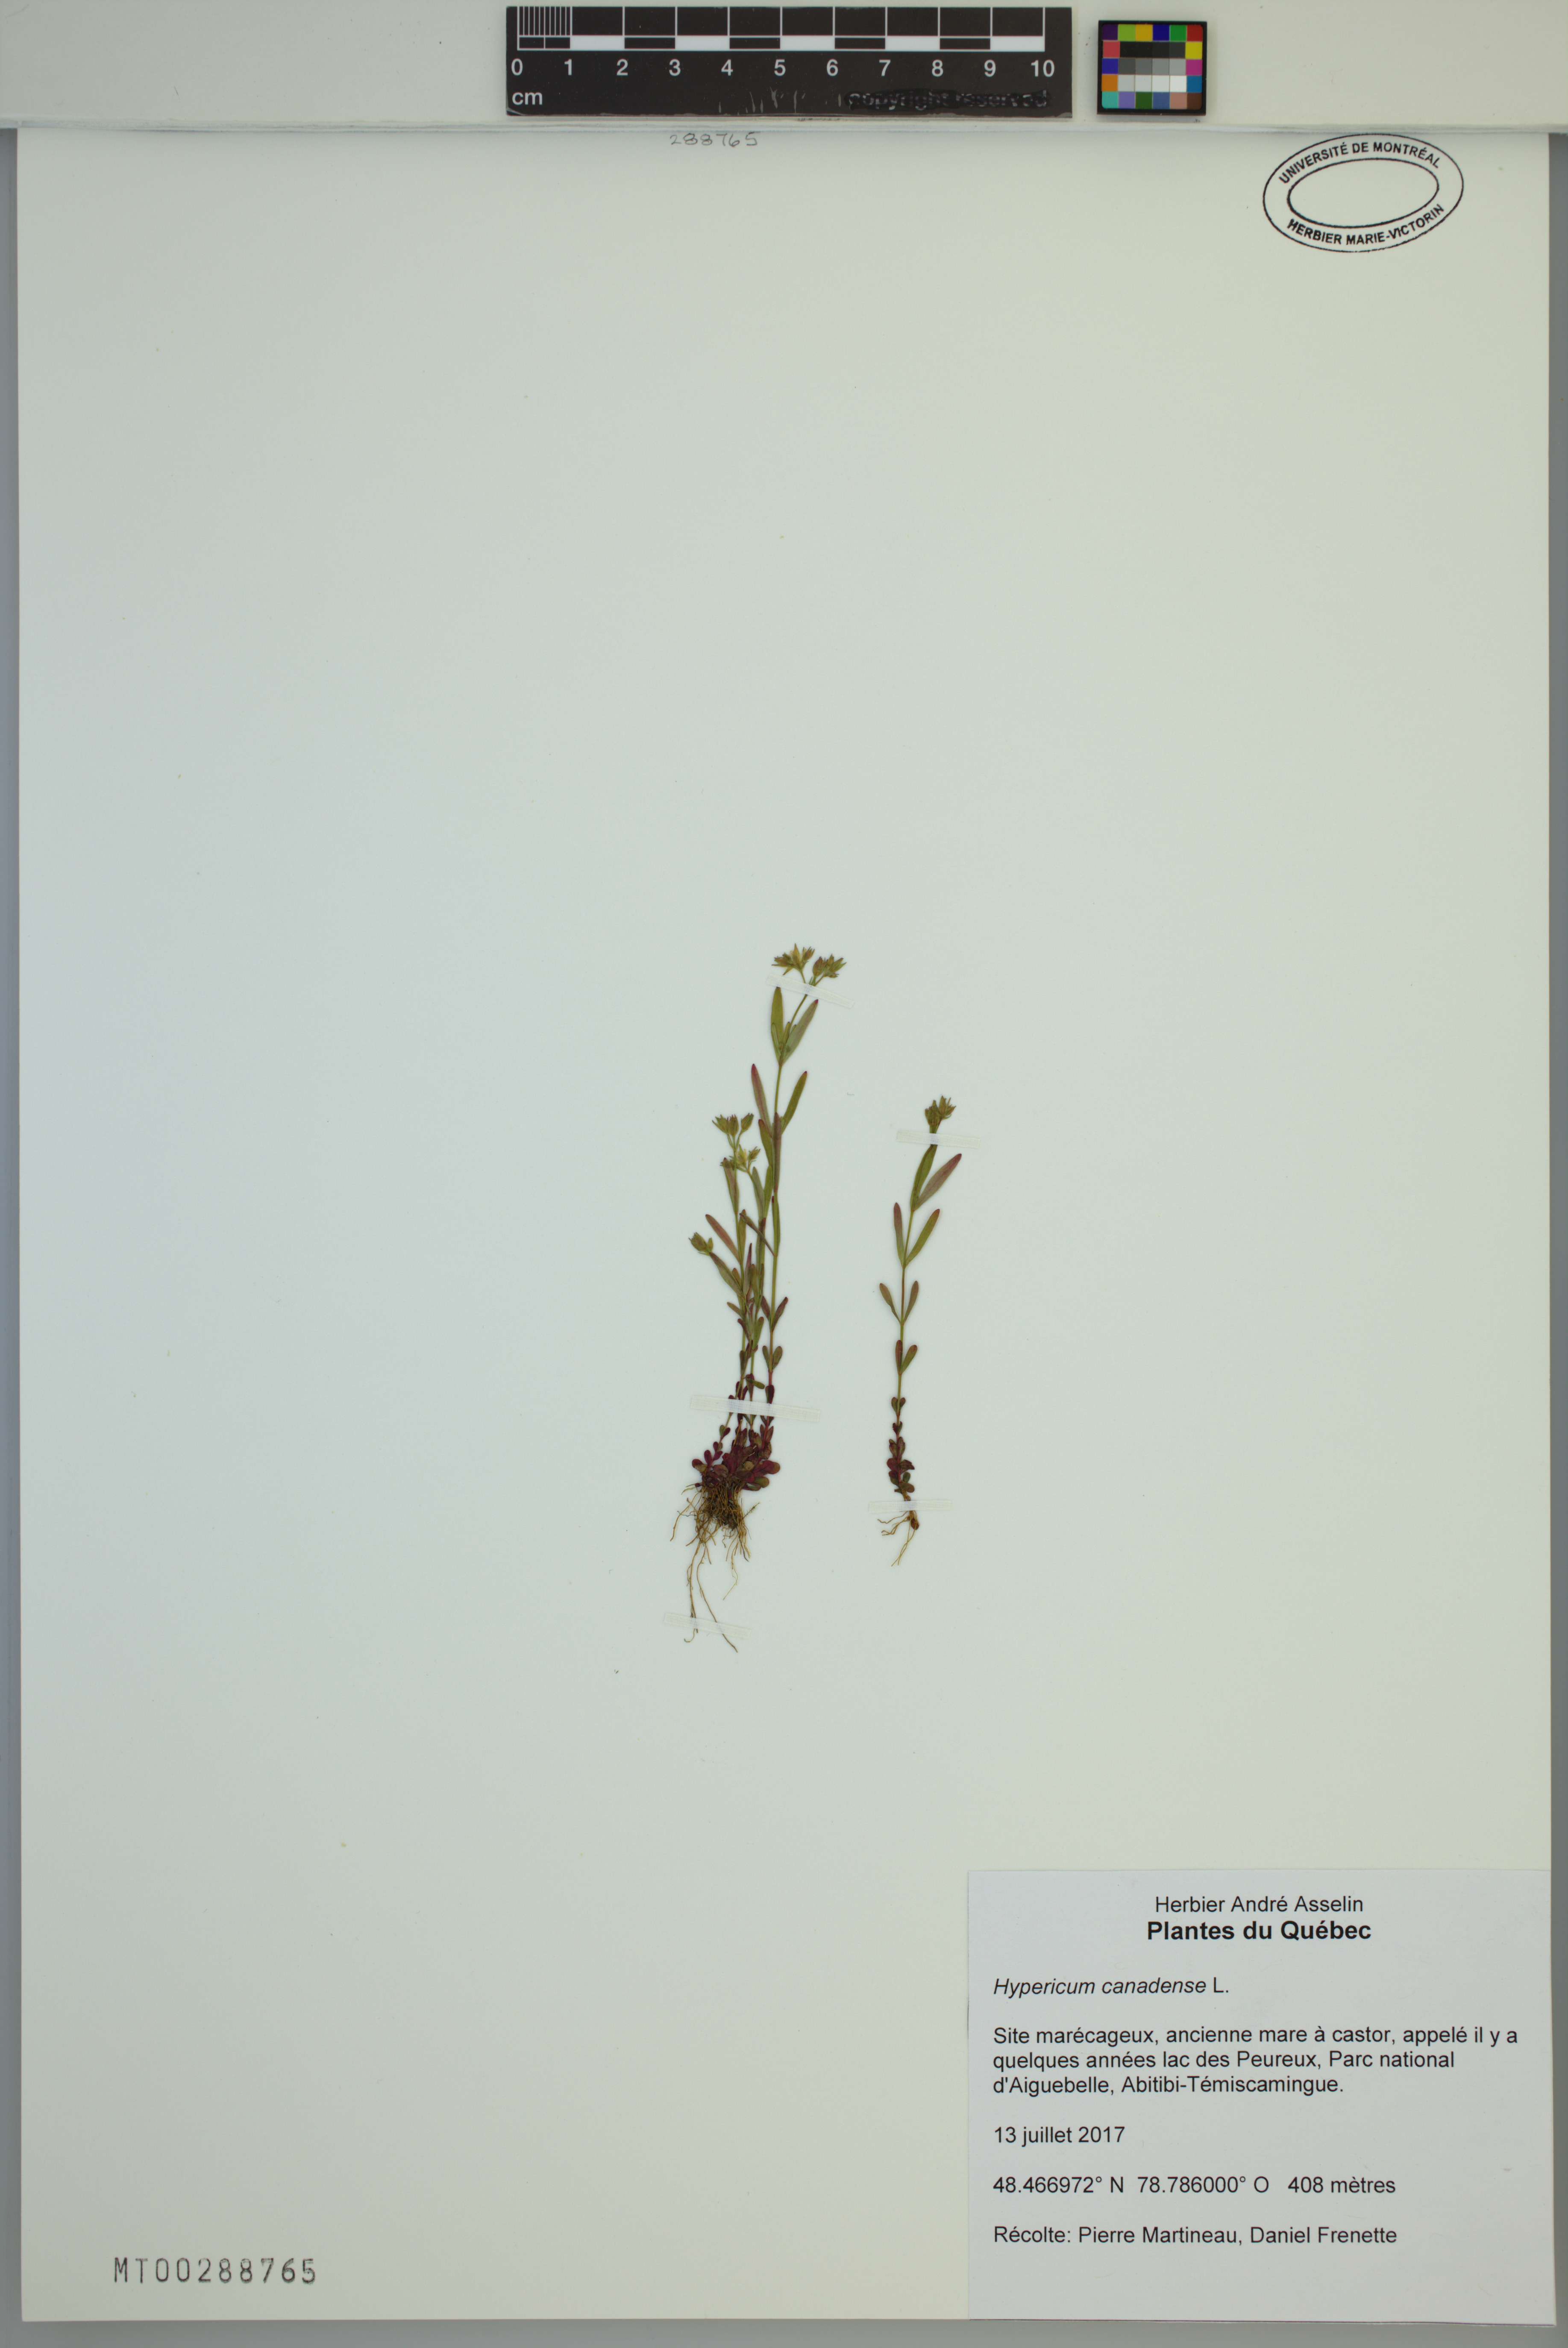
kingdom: Plantae
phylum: Tracheophyta
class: Magnoliopsida
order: Malpighiales
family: Hypericaceae
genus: Hypericum
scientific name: Hypericum canadense
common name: Irish st. john's-wort
